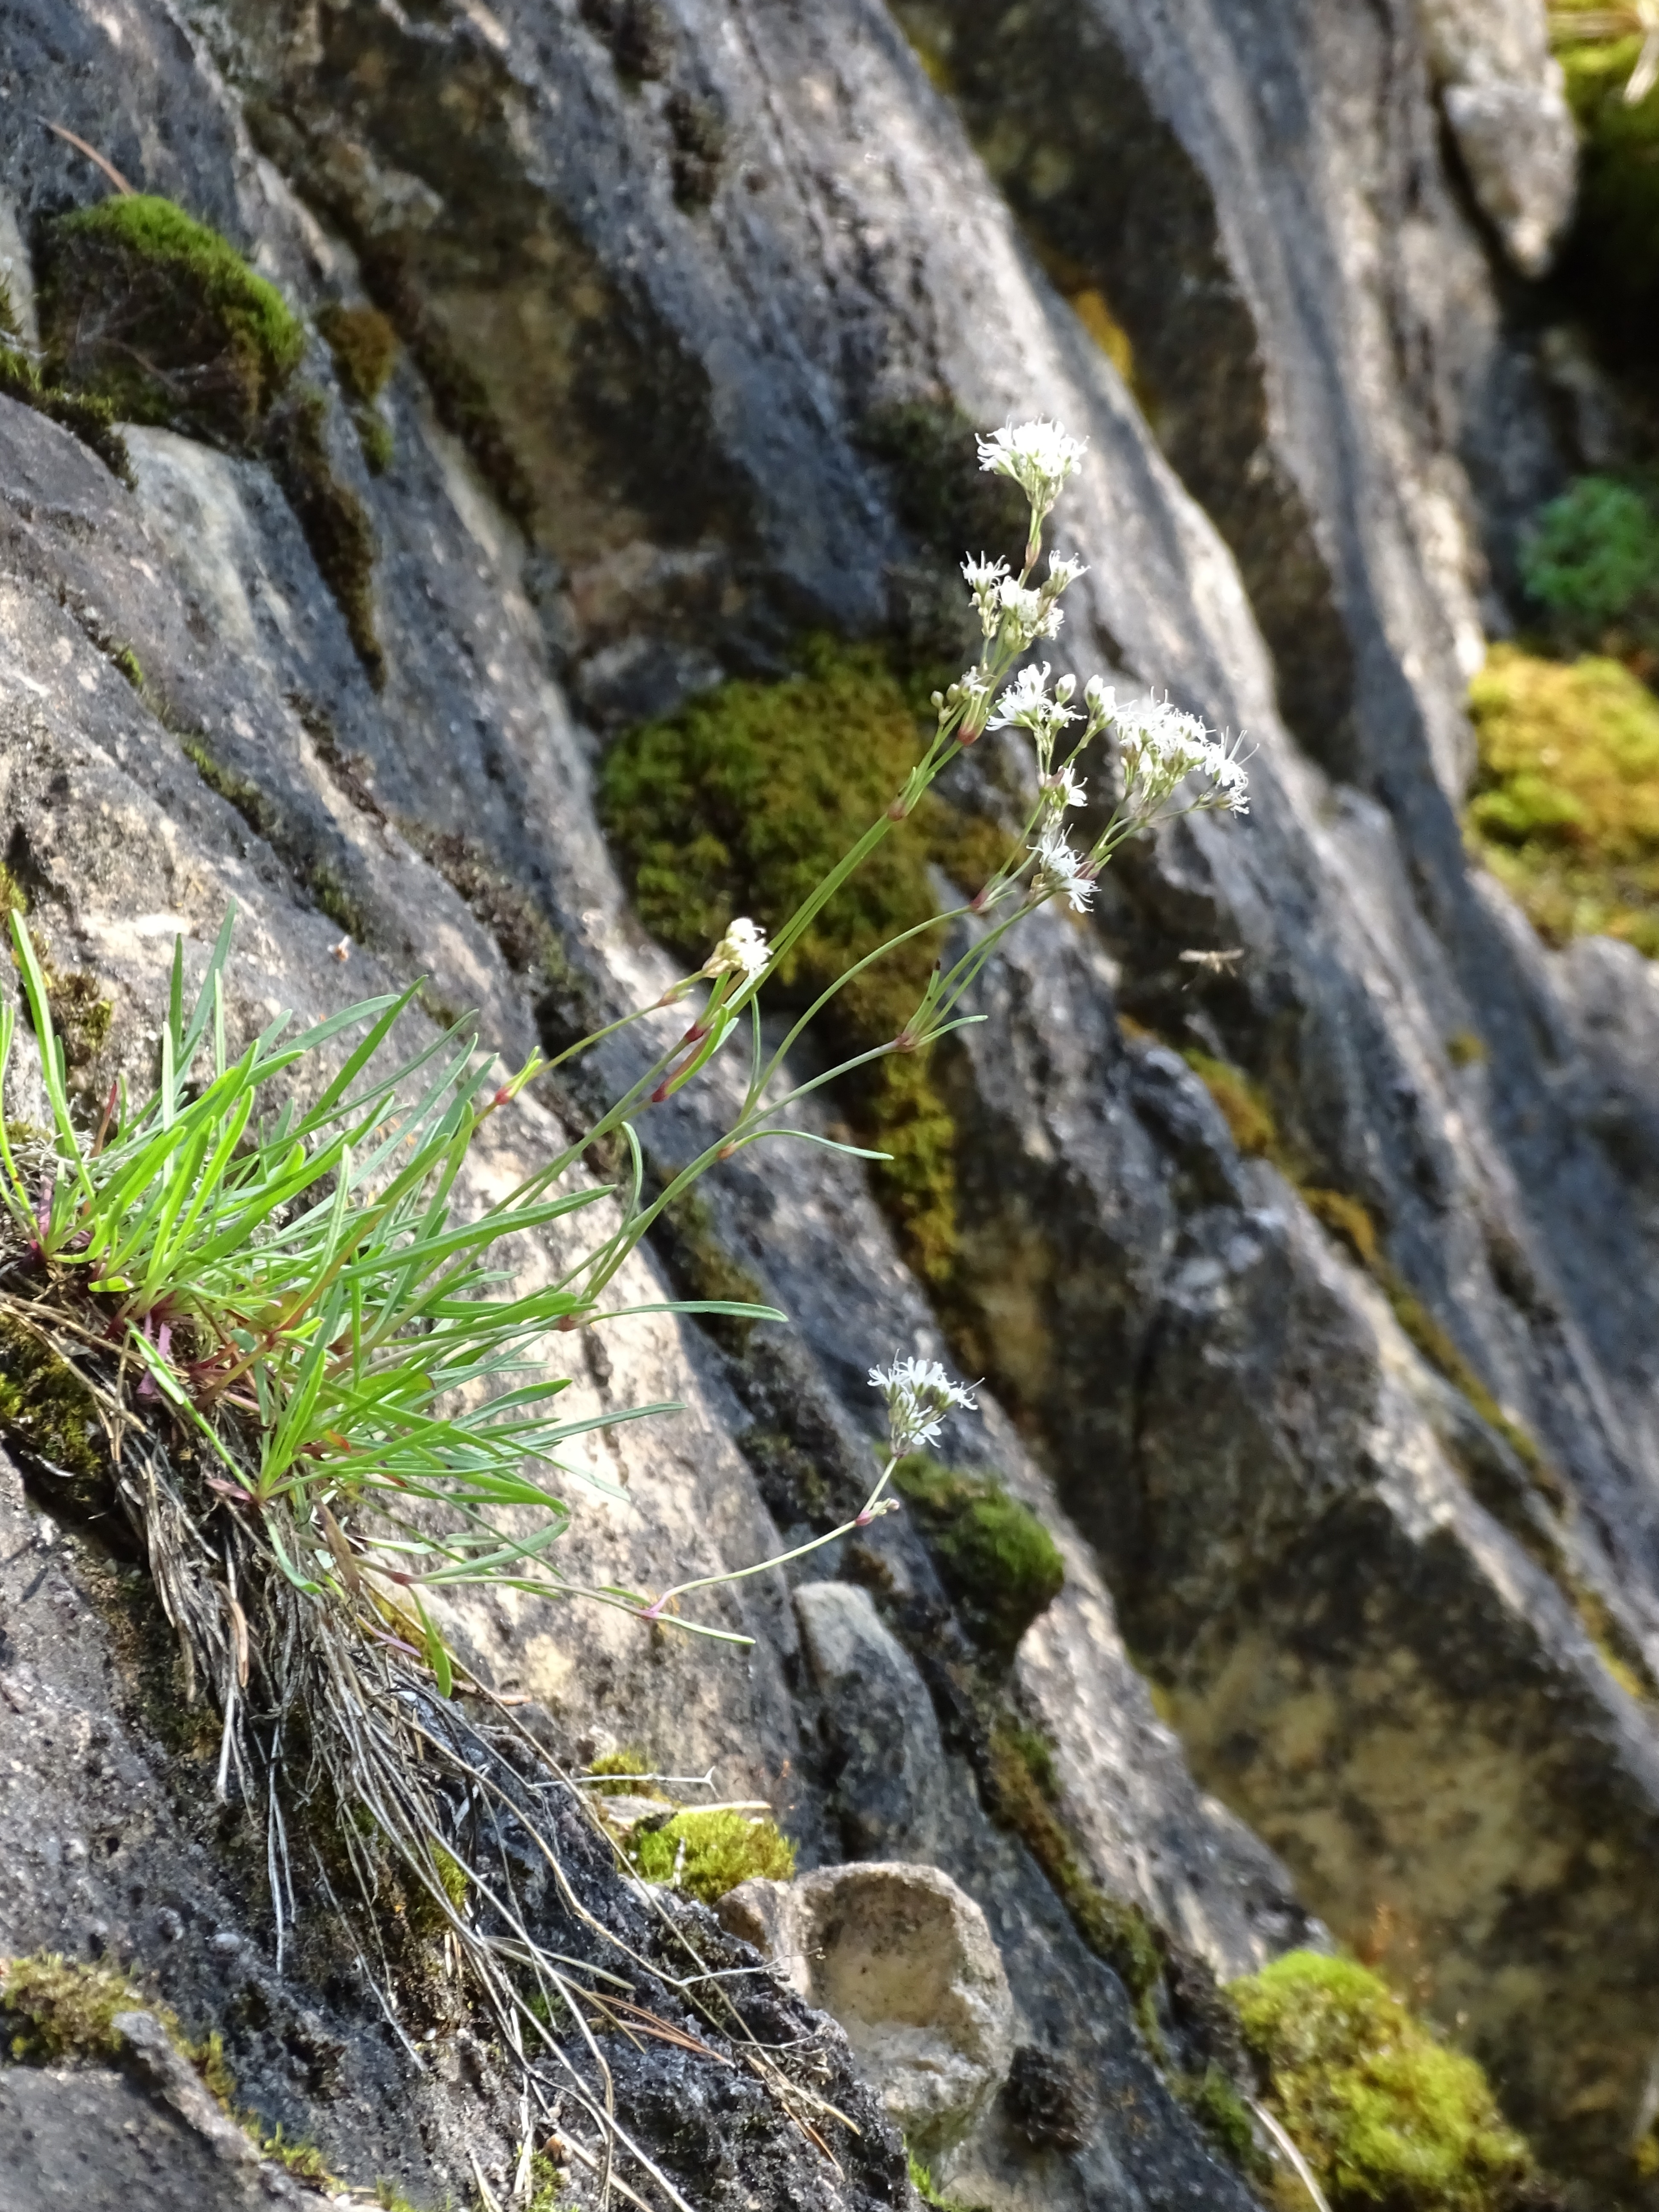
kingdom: Plantae
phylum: Tracheophyta
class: Magnoliopsida
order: Caryophyllales
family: Caryophyllaceae
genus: Gypsophila
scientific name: Gypsophila fastigiata
